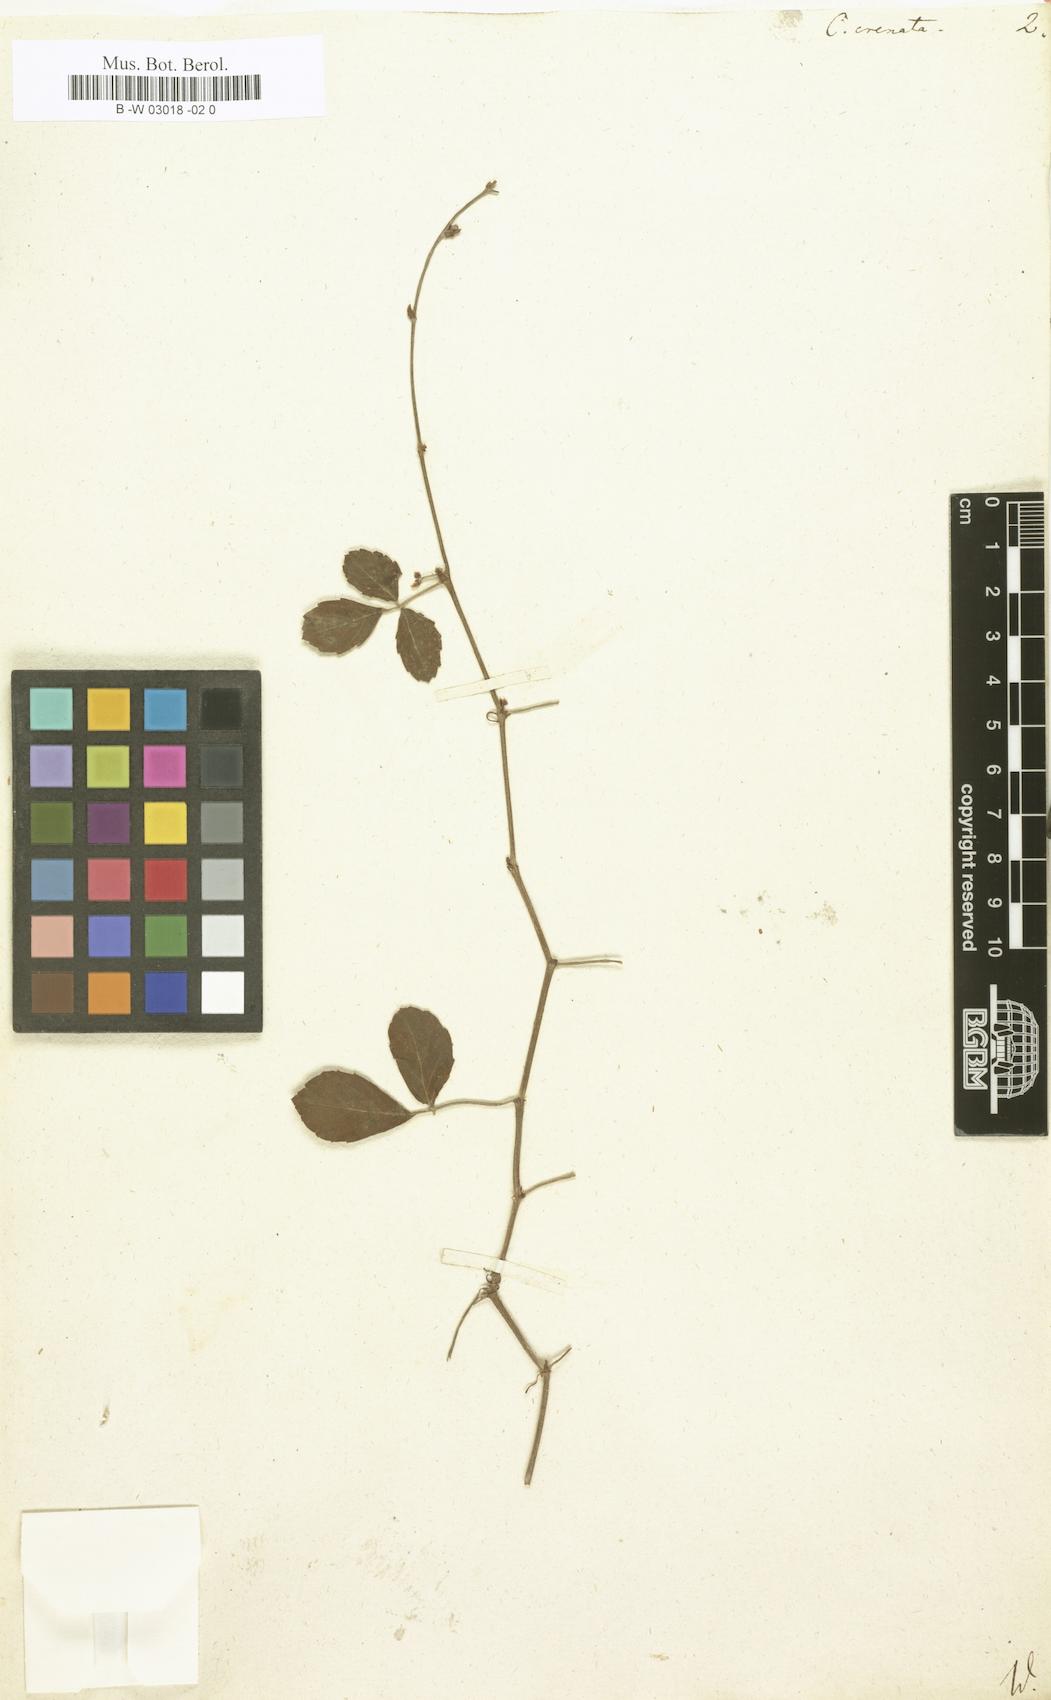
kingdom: Plantae
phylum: Tracheophyta
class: Magnoliopsida
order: Vitales
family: Vitaceae
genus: Cissus
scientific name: Cissus trifoliata
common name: Vine-sorrel
